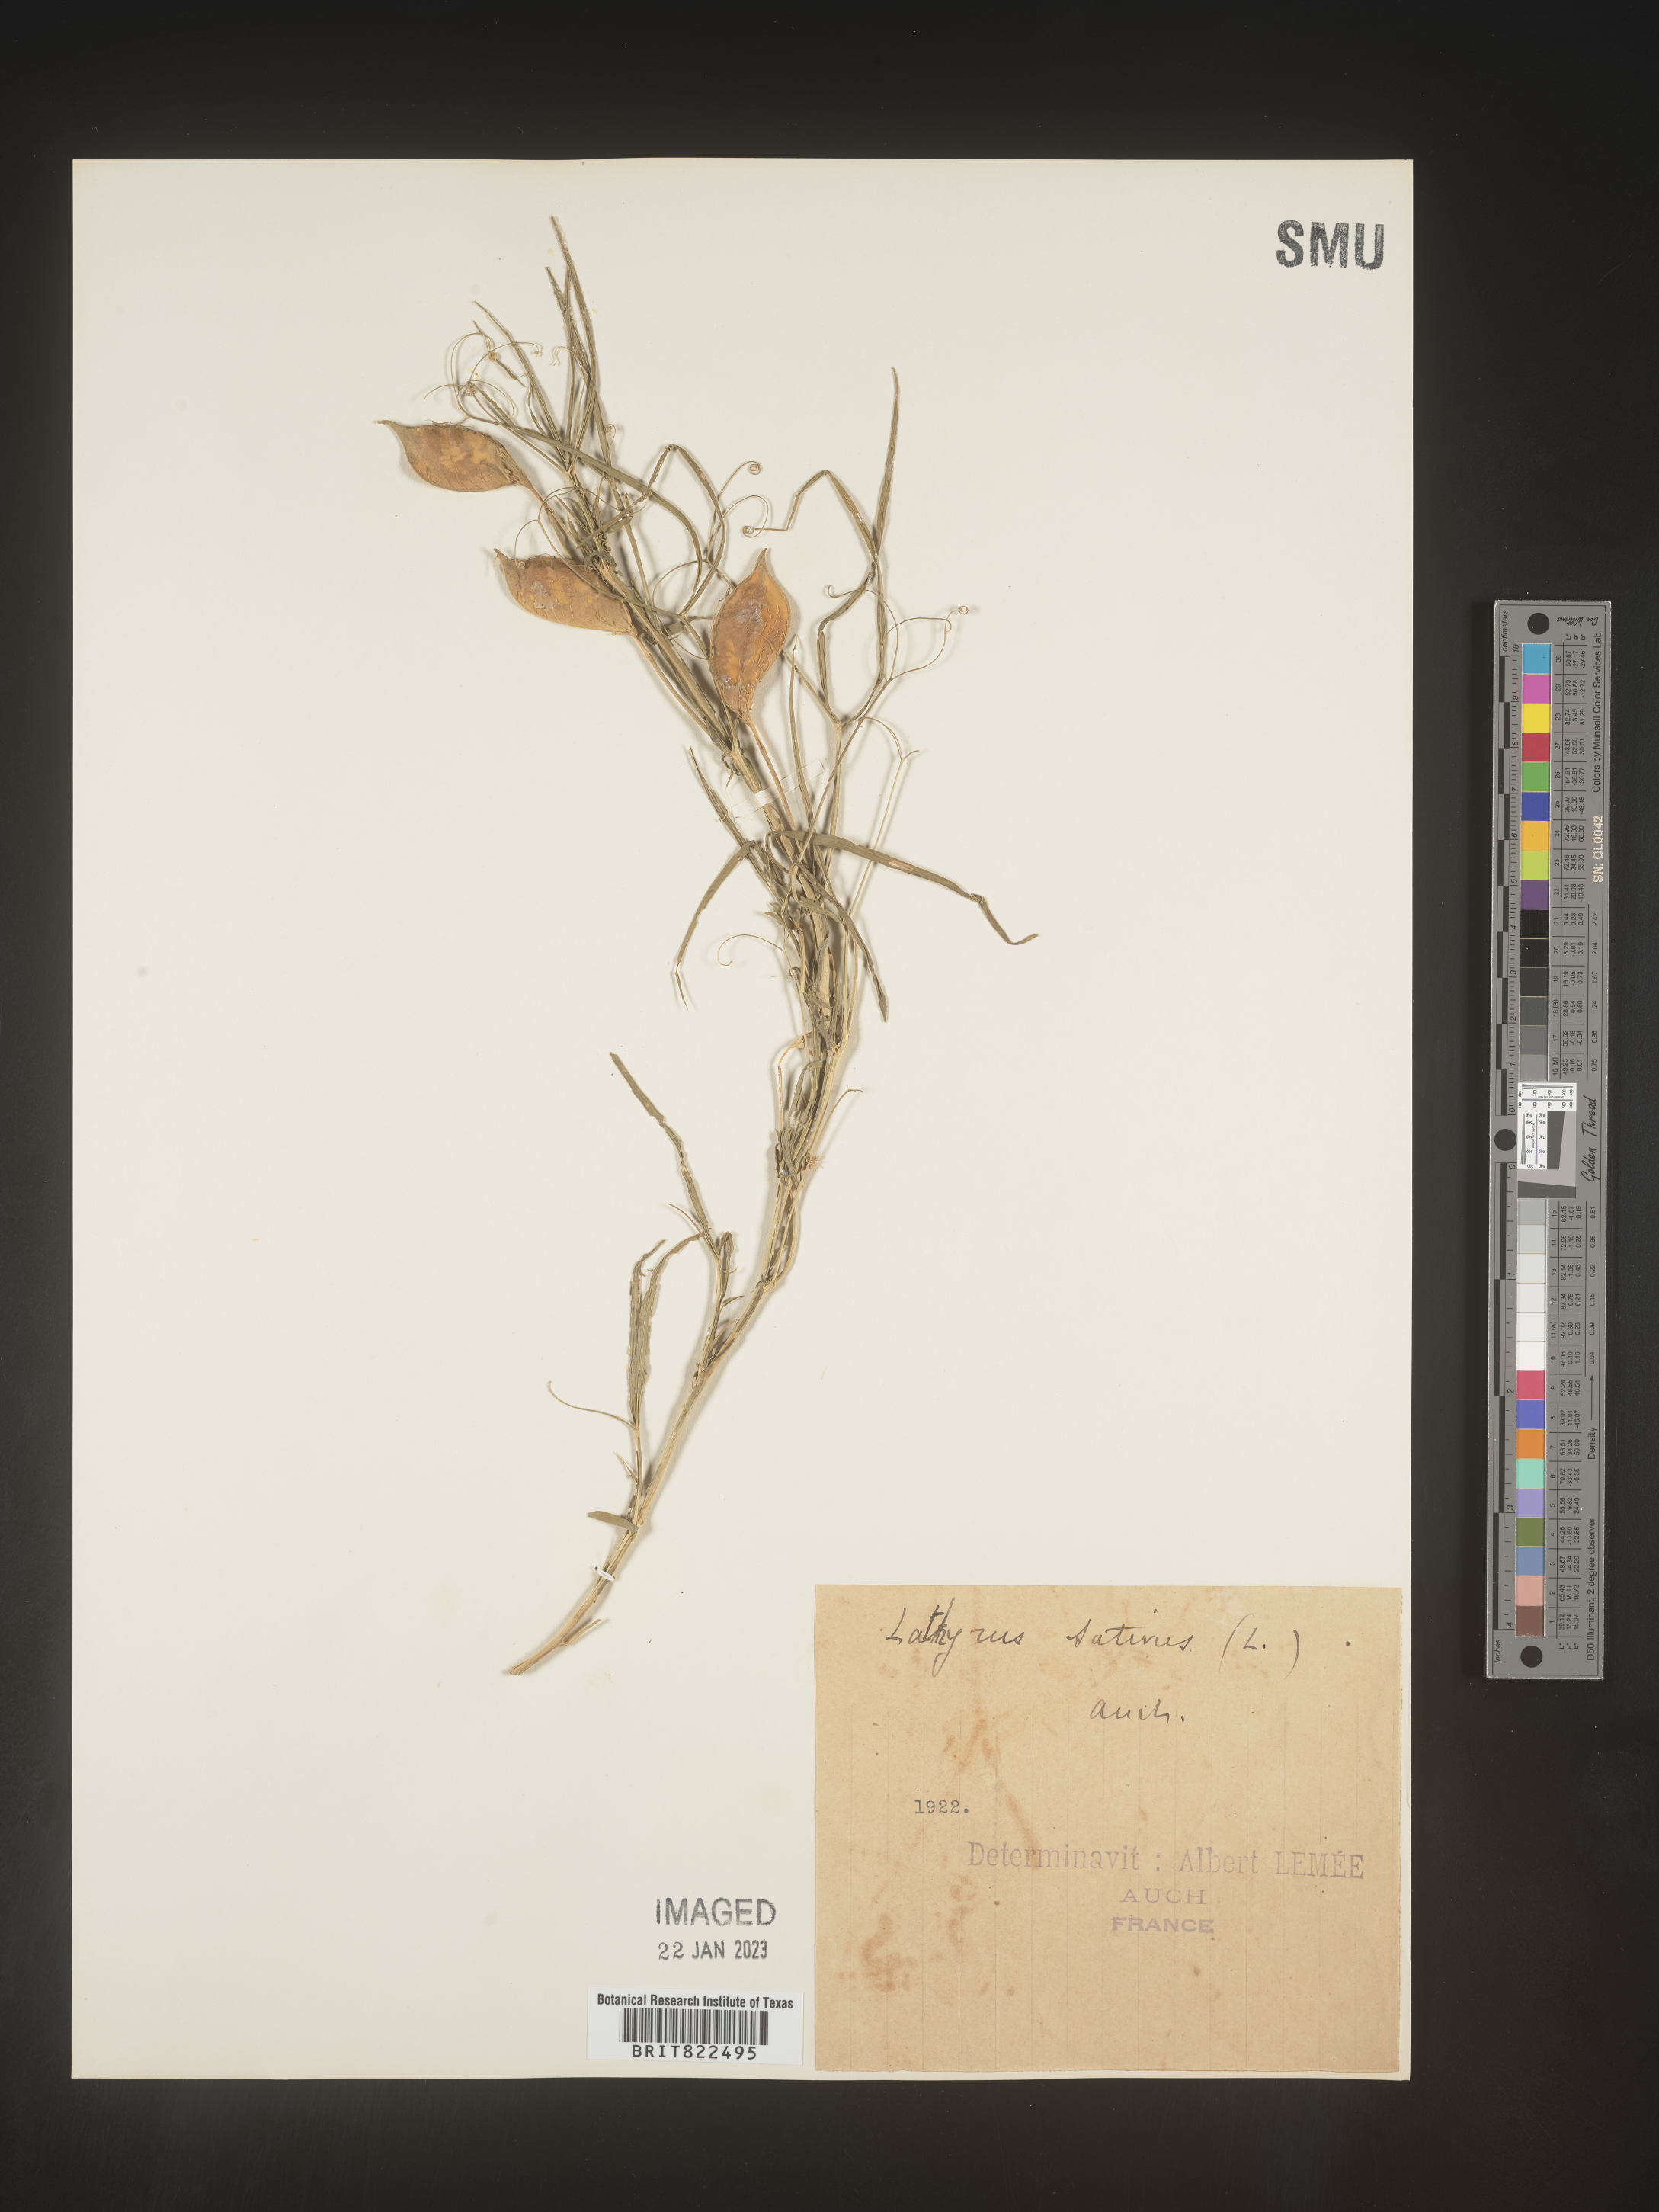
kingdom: Plantae
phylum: Tracheophyta
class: Magnoliopsida
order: Fabales
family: Fabaceae
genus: Lathyrus
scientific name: Lathyrus
